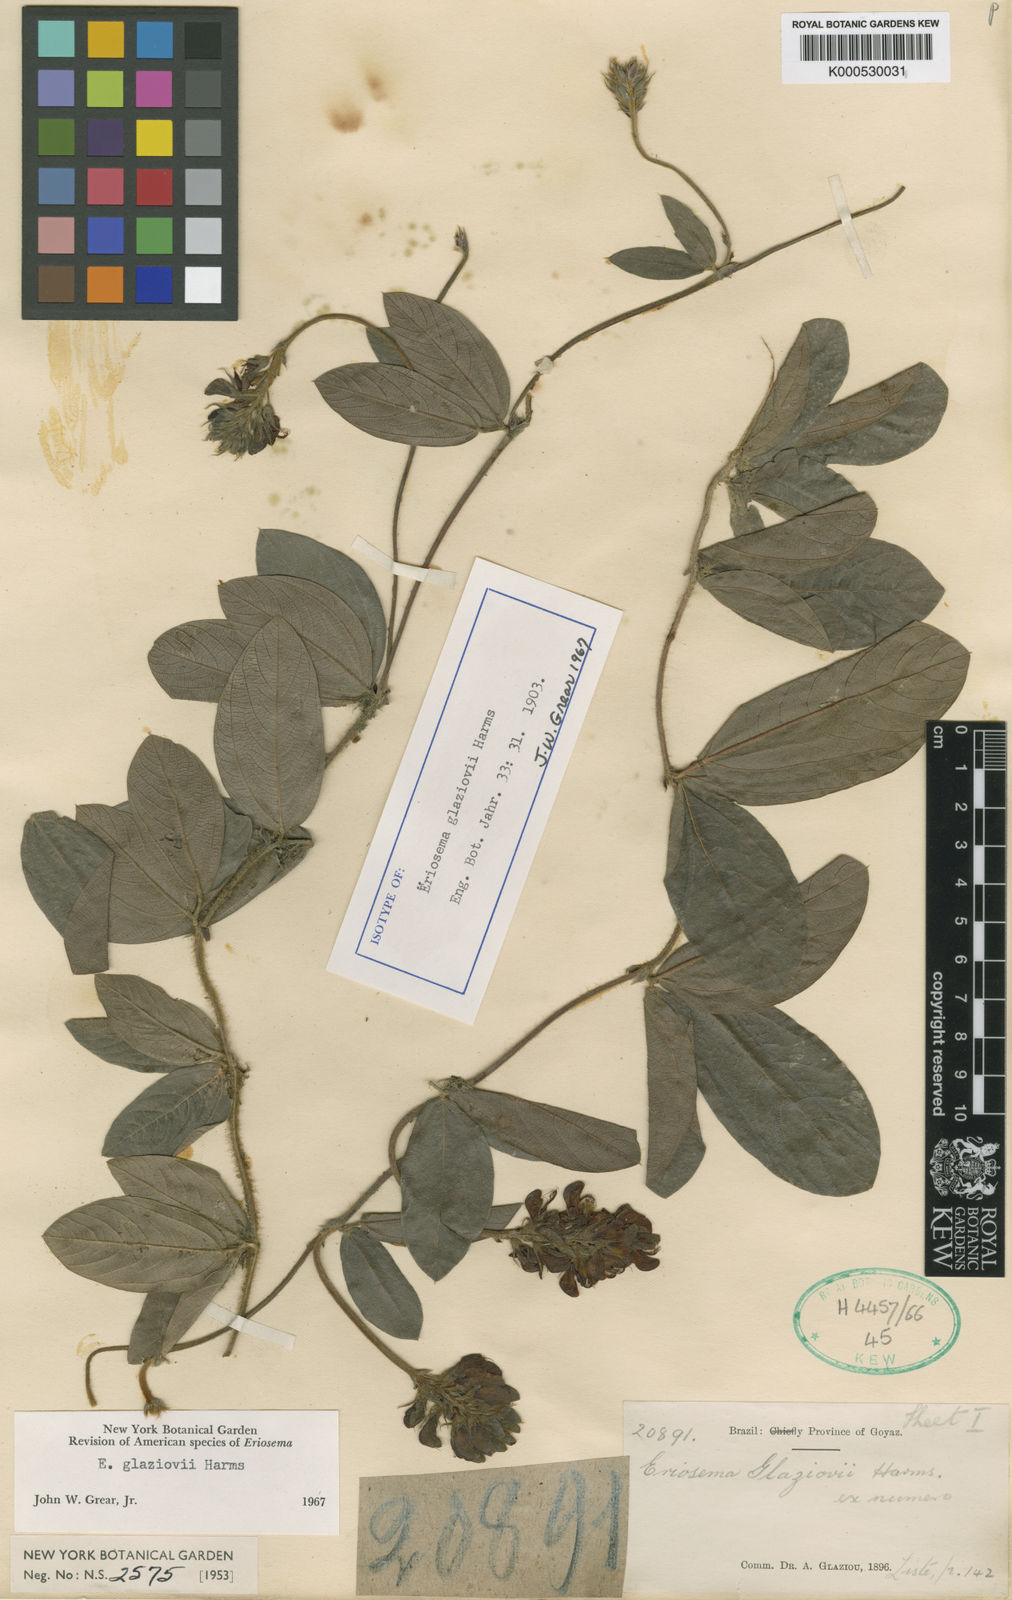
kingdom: Plantae
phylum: Tracheophyta
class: Magnoliopsida
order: Fabales
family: Fabaceae
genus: Eriosema
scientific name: Eriosema glaziovii
